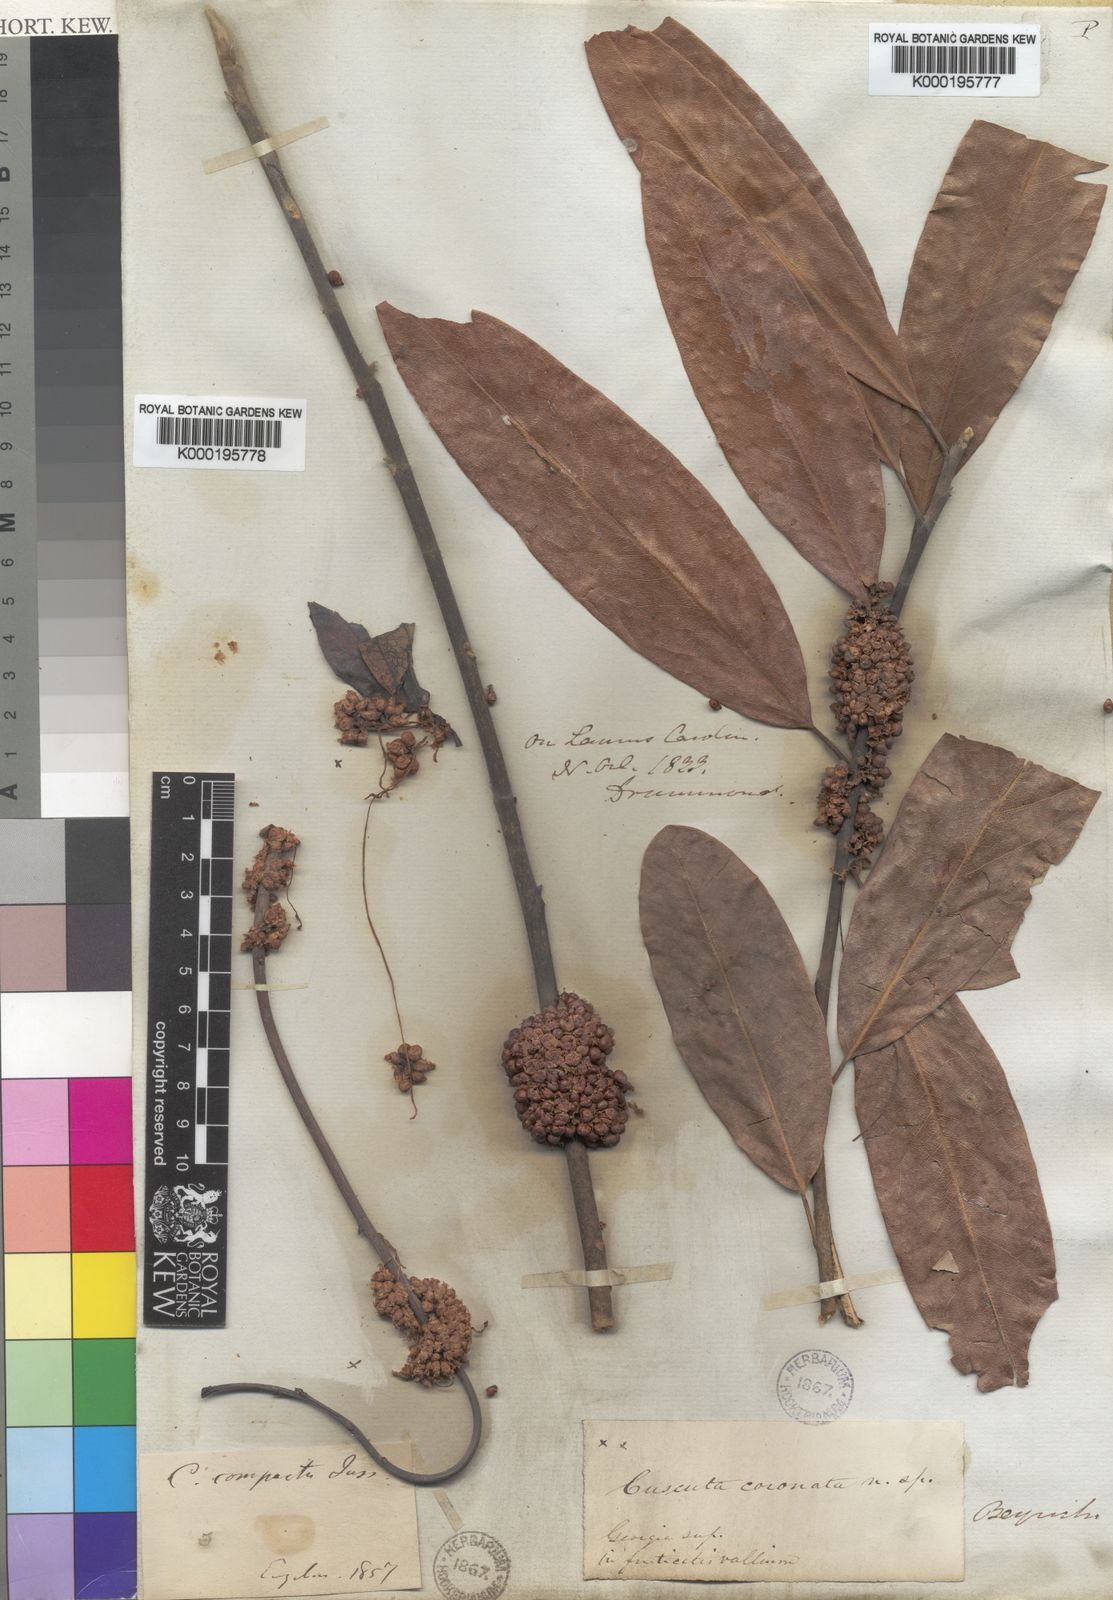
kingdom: Plantae
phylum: Tracheophyta
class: Magnoliopsida
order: Solanales
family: Convolvulaceae
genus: Cuscuta
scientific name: Cuscuta compacta
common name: Compact dodder
